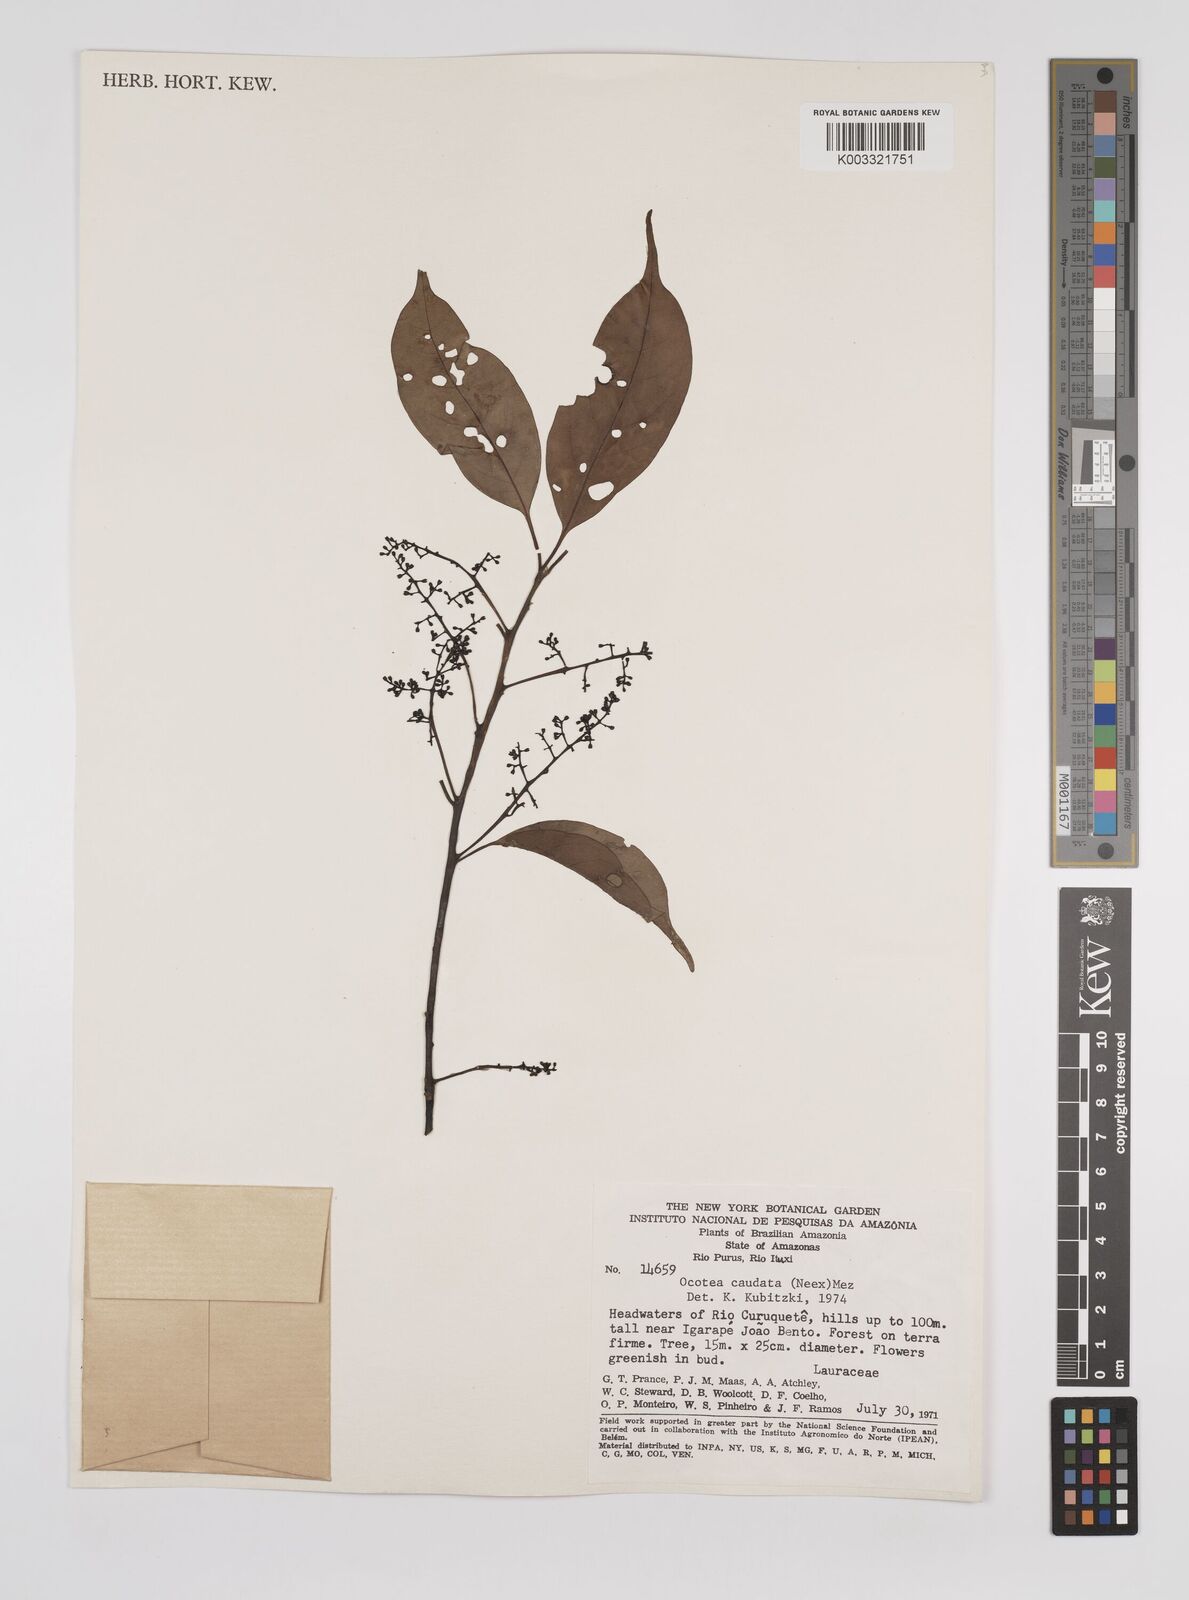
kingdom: Plantae
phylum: Tracheophyta
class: Magnoliopsida
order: Laurales
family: Lauraceae
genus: Ocotea
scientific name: Ocotea leptobotra
